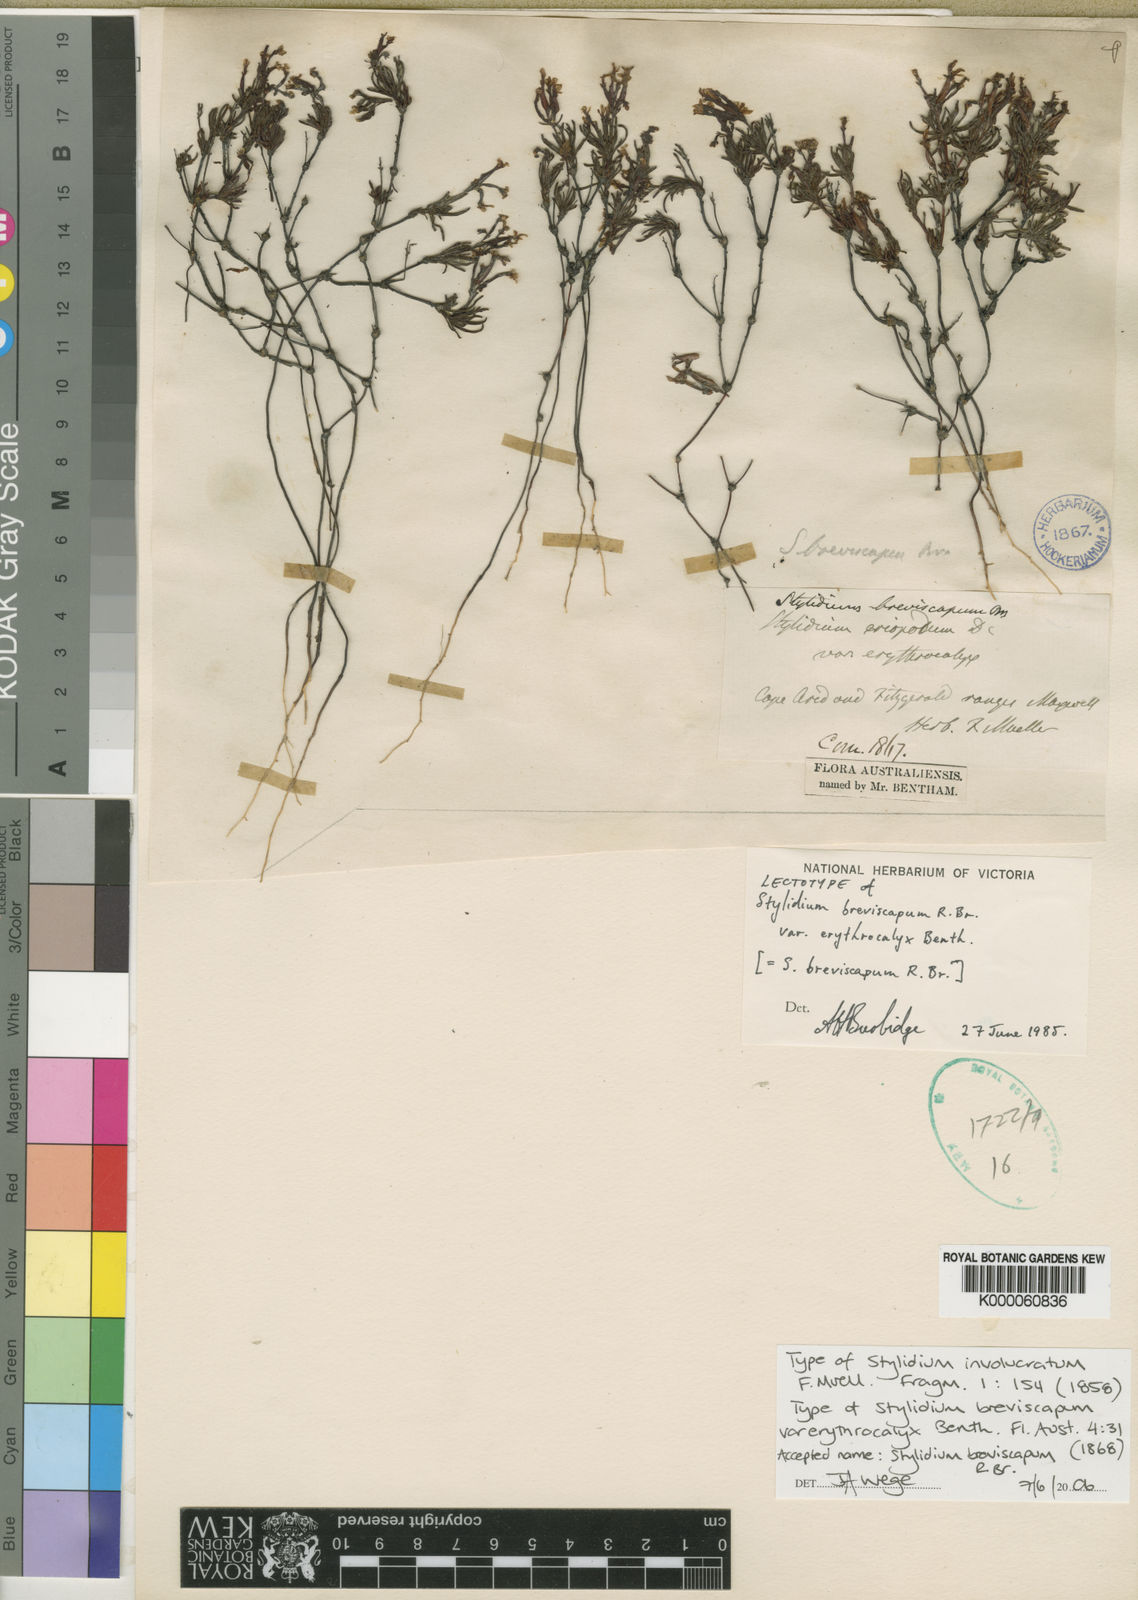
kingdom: Plantae
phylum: Tracheophyta
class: Magnoliopsida
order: Asterales
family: Stylidiaceae
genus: Stylidium
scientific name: Stylidium breviscapum
